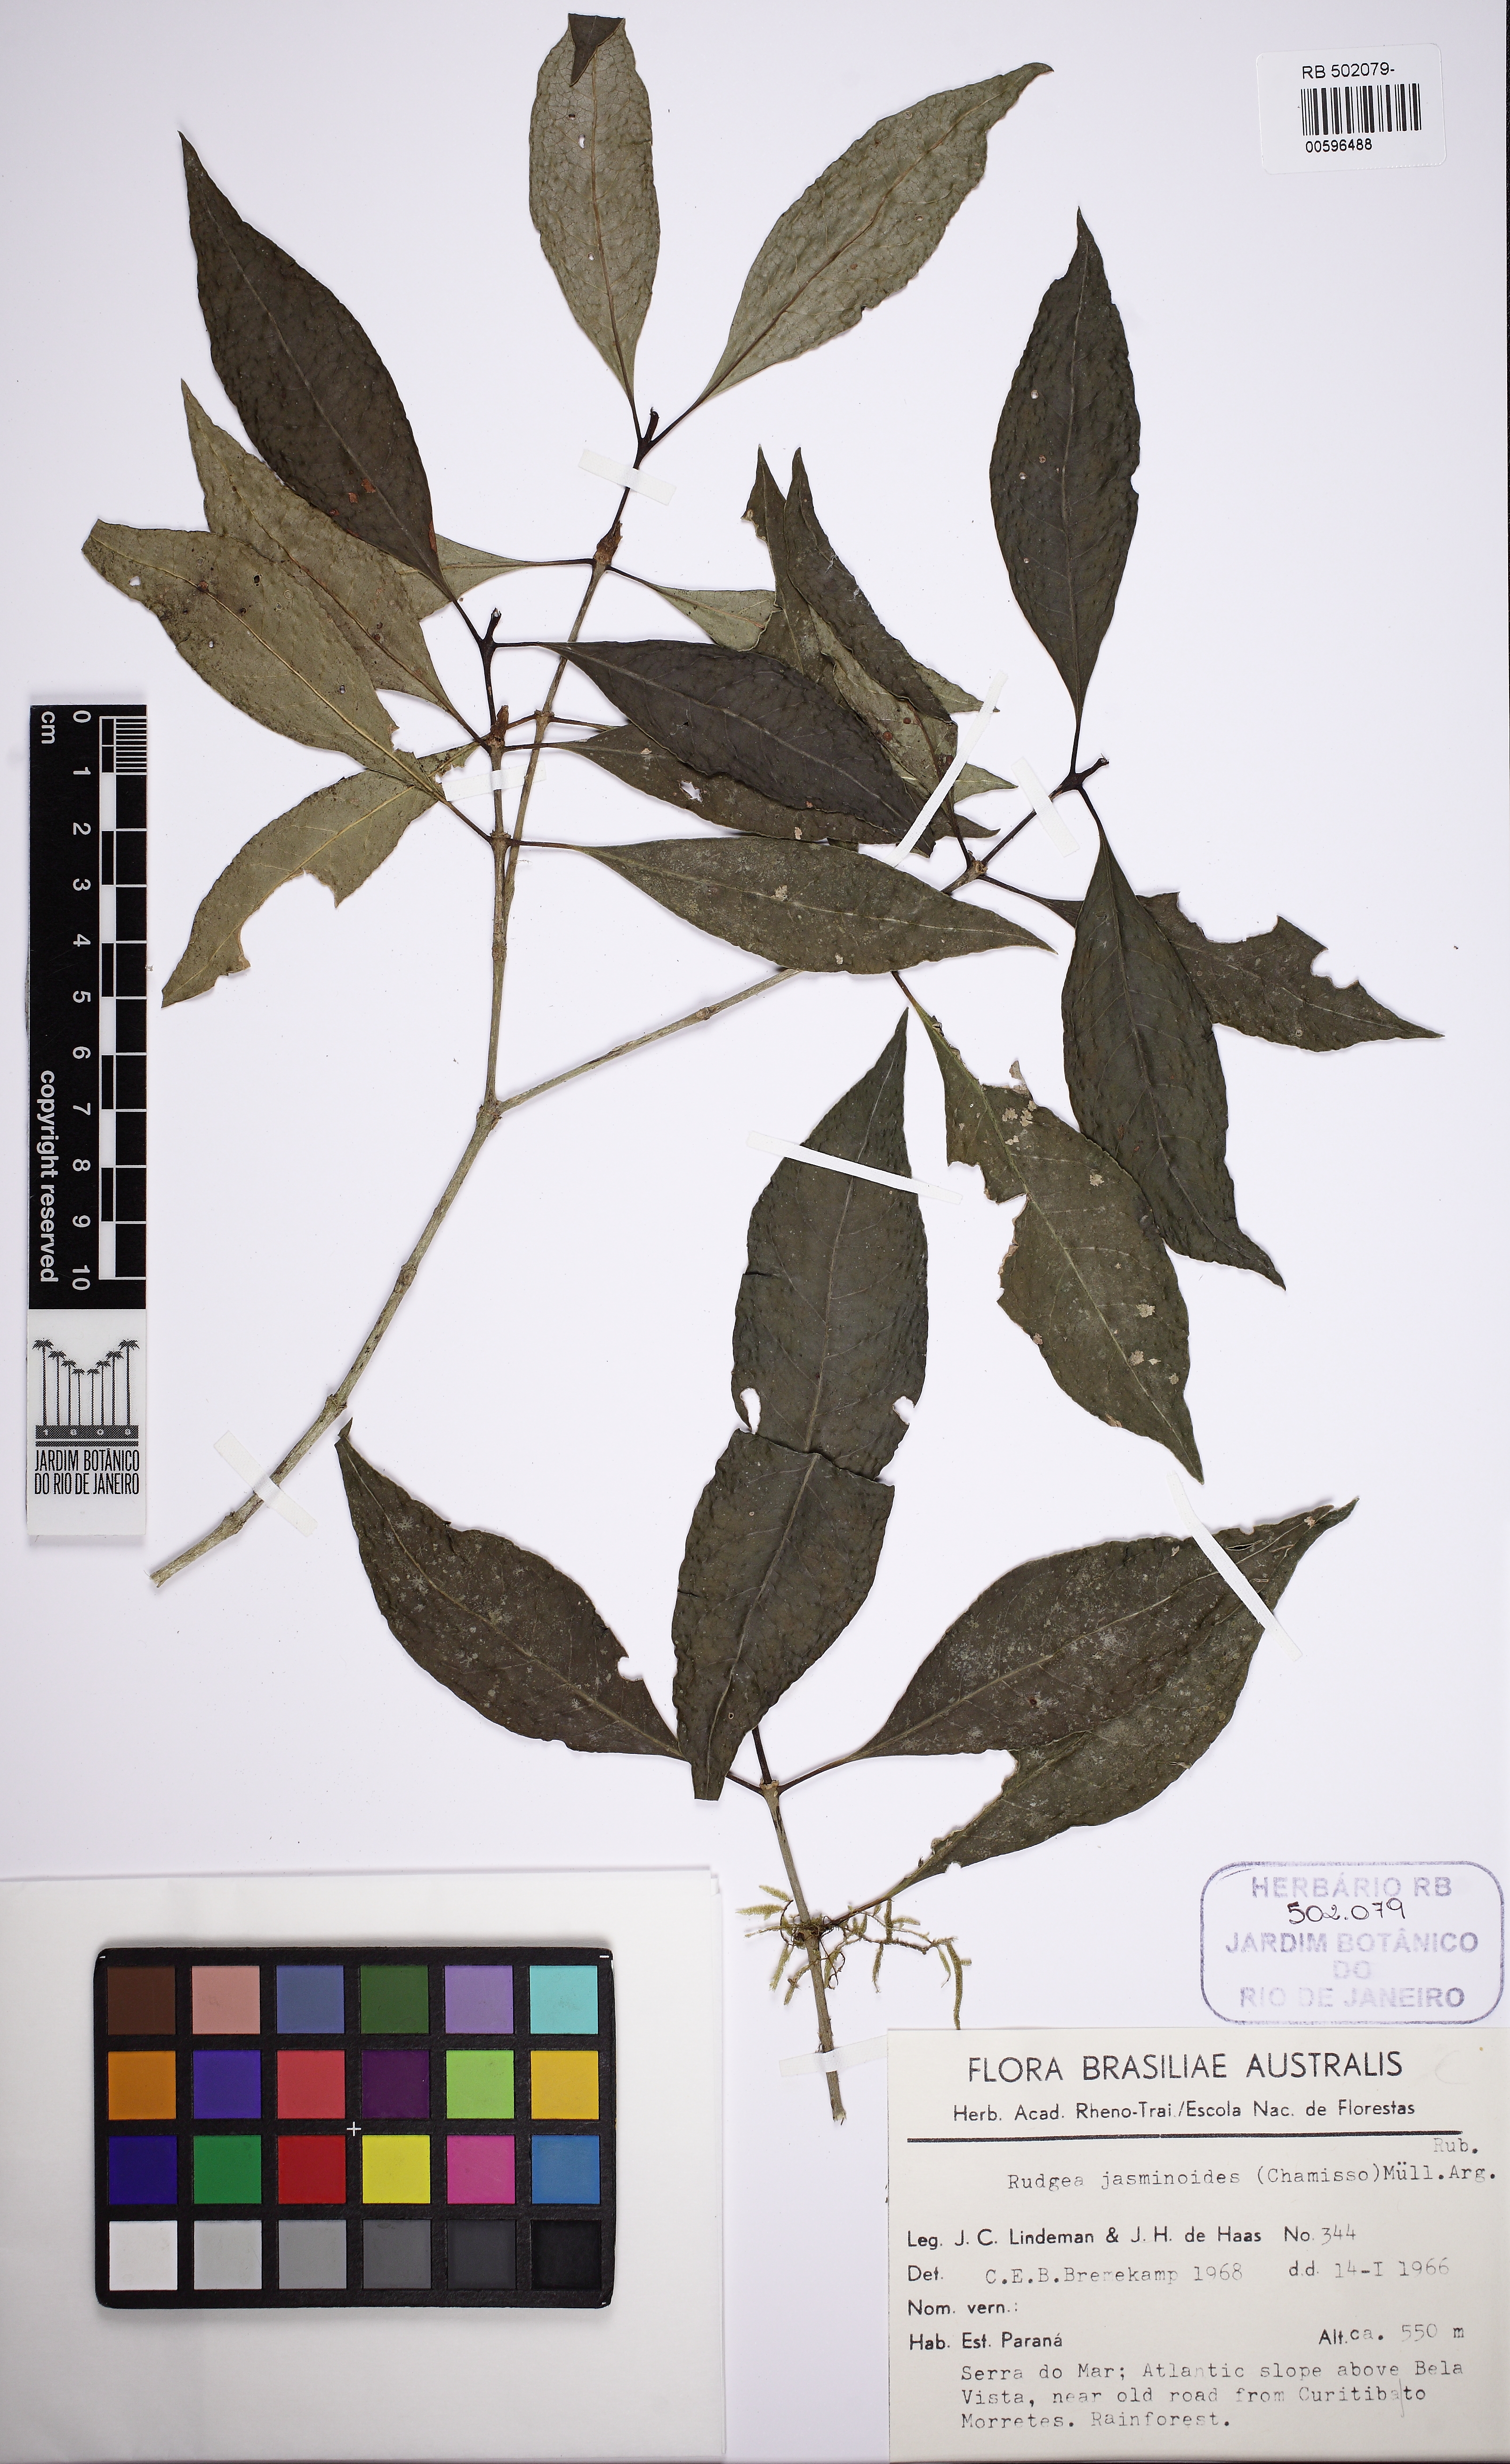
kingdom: Plantae
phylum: Tracheophyta
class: Magnoliopsida
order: Gentianales
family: Rubiaceae
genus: Rudgea
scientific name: Rudgea jasminoides
